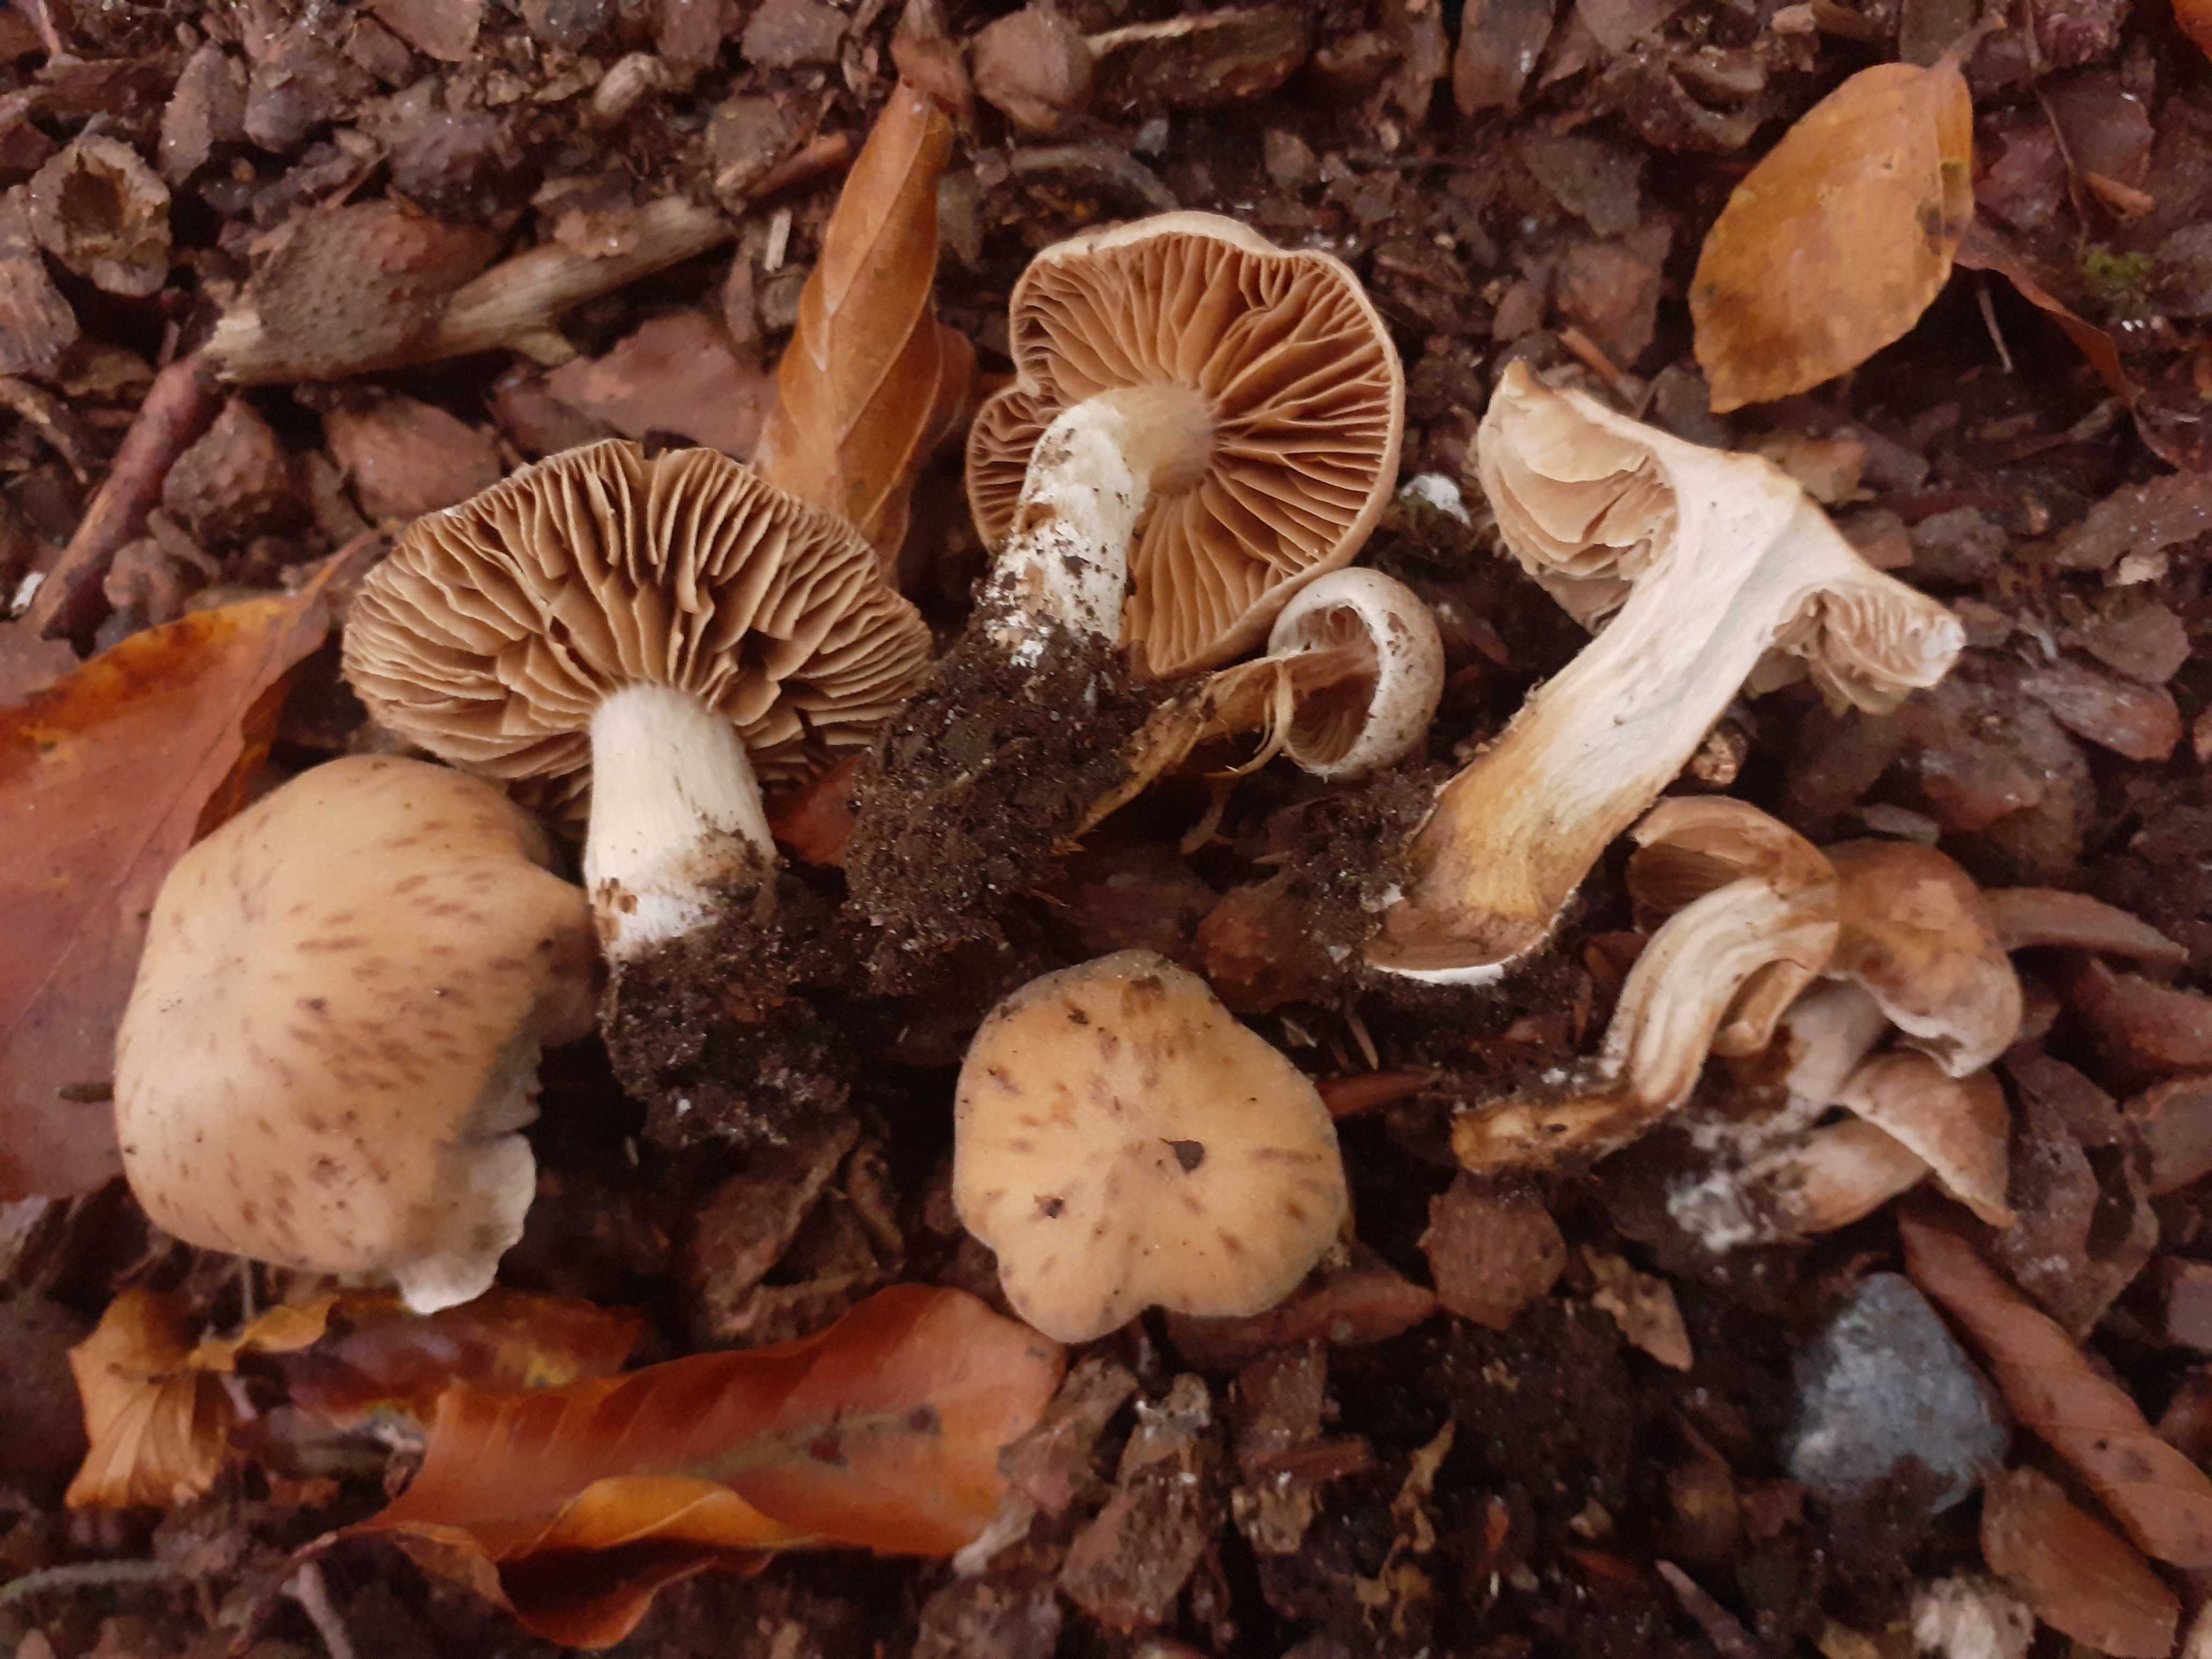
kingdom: Fungi
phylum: Basidiomycota
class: Agaricomycetes
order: Agaricales
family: Cortinariaceae
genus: Cortinarius
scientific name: Cortinarius epipurrus
